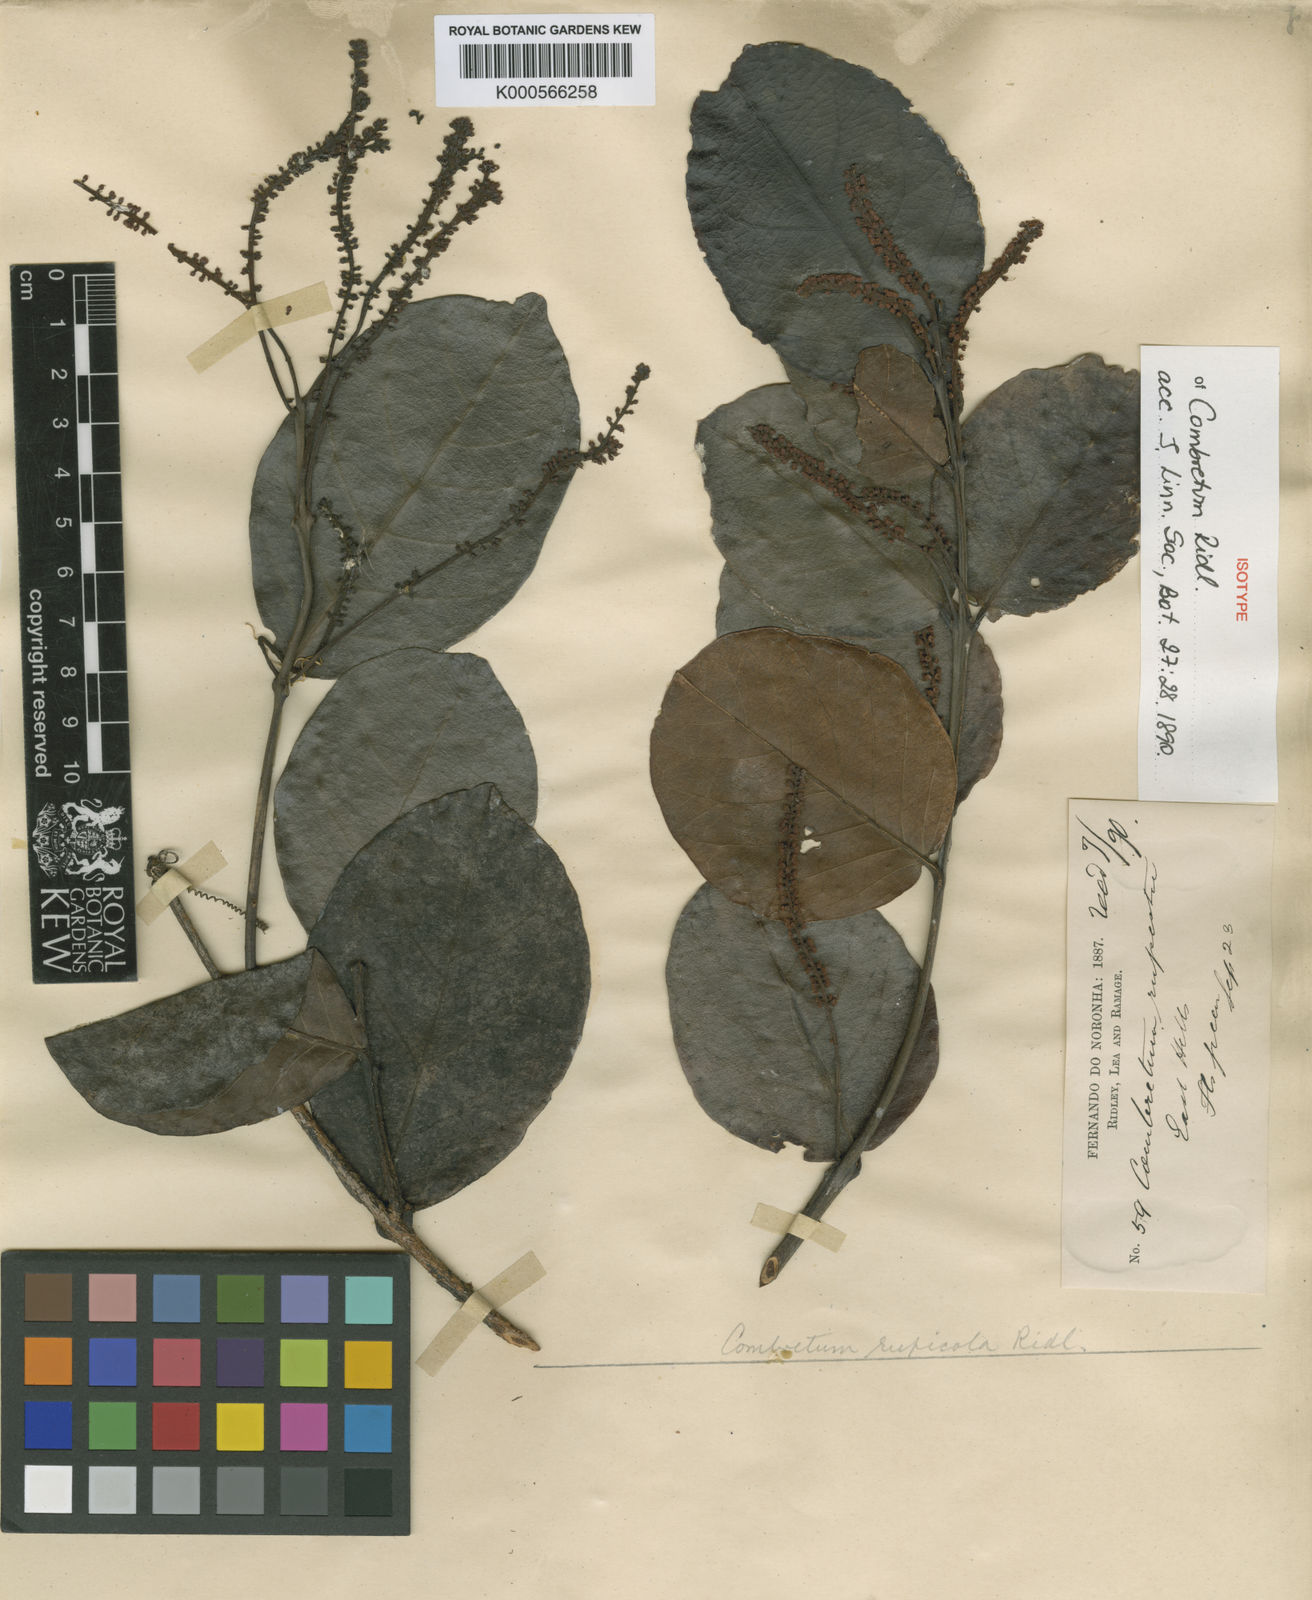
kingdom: Plantae
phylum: Tracheophyta
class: Magnoliopsida
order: Myrtales
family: Combretaceae
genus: Combretum
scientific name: Combretum rupicola
